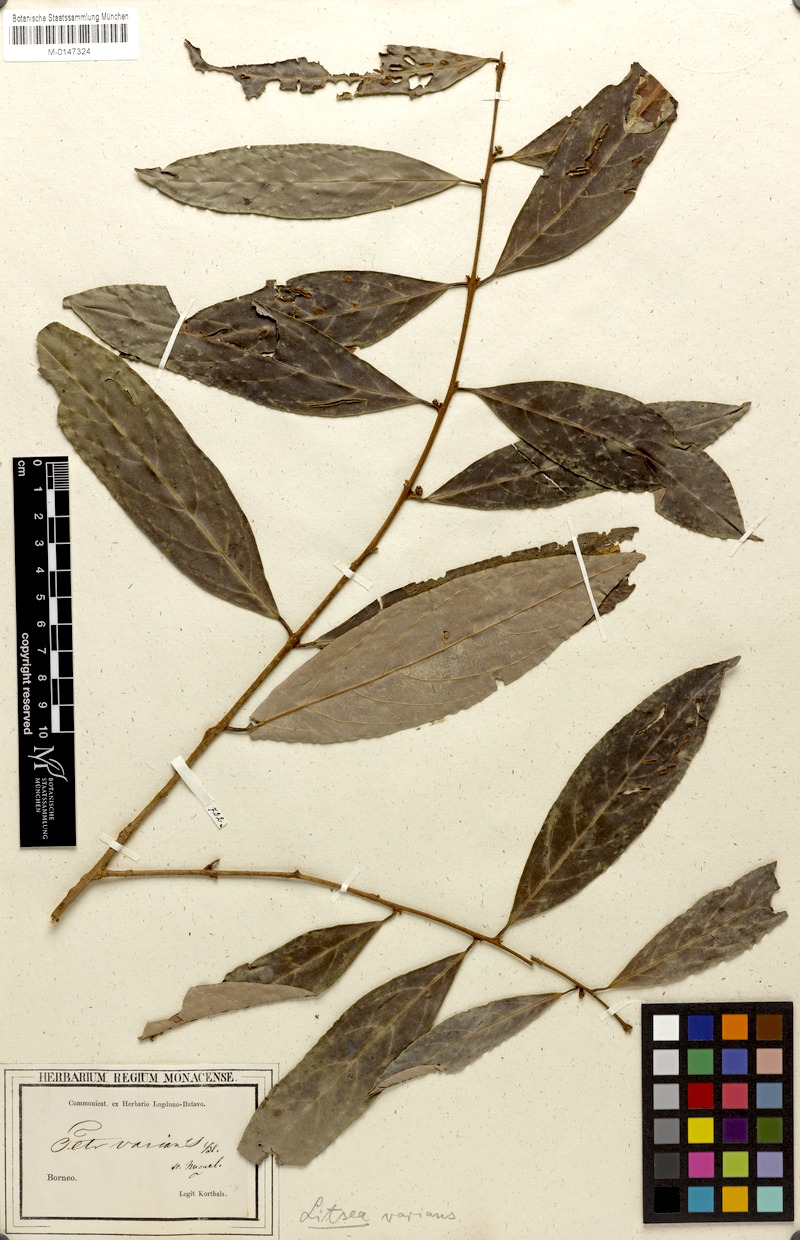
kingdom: Plantae
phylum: Tracheophyta
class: Magnoliopsida
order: Laurales
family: Lauraceae
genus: Litsea
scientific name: Litsea varians
